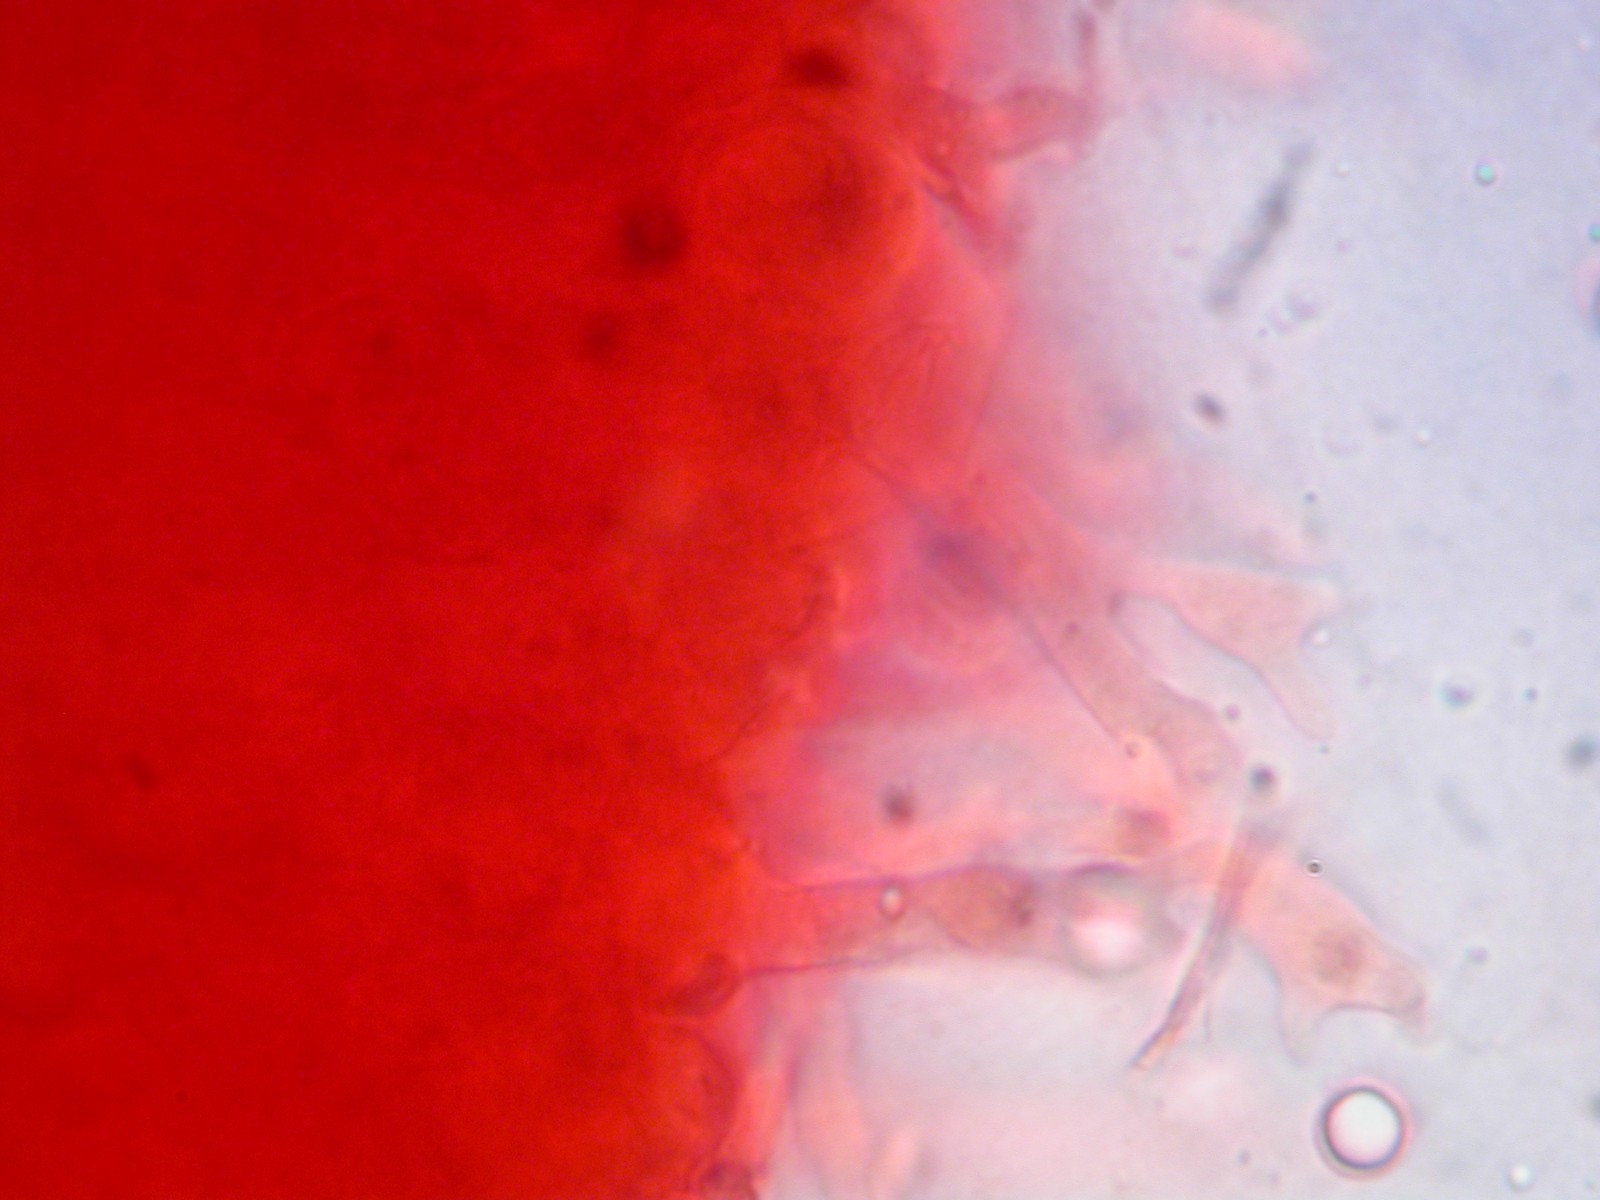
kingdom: Fungi
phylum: Basidiomycota
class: Agaricomycetes
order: Agaricales
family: Mycenaceae
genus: Mycena
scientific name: Mycena
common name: huesvamp
